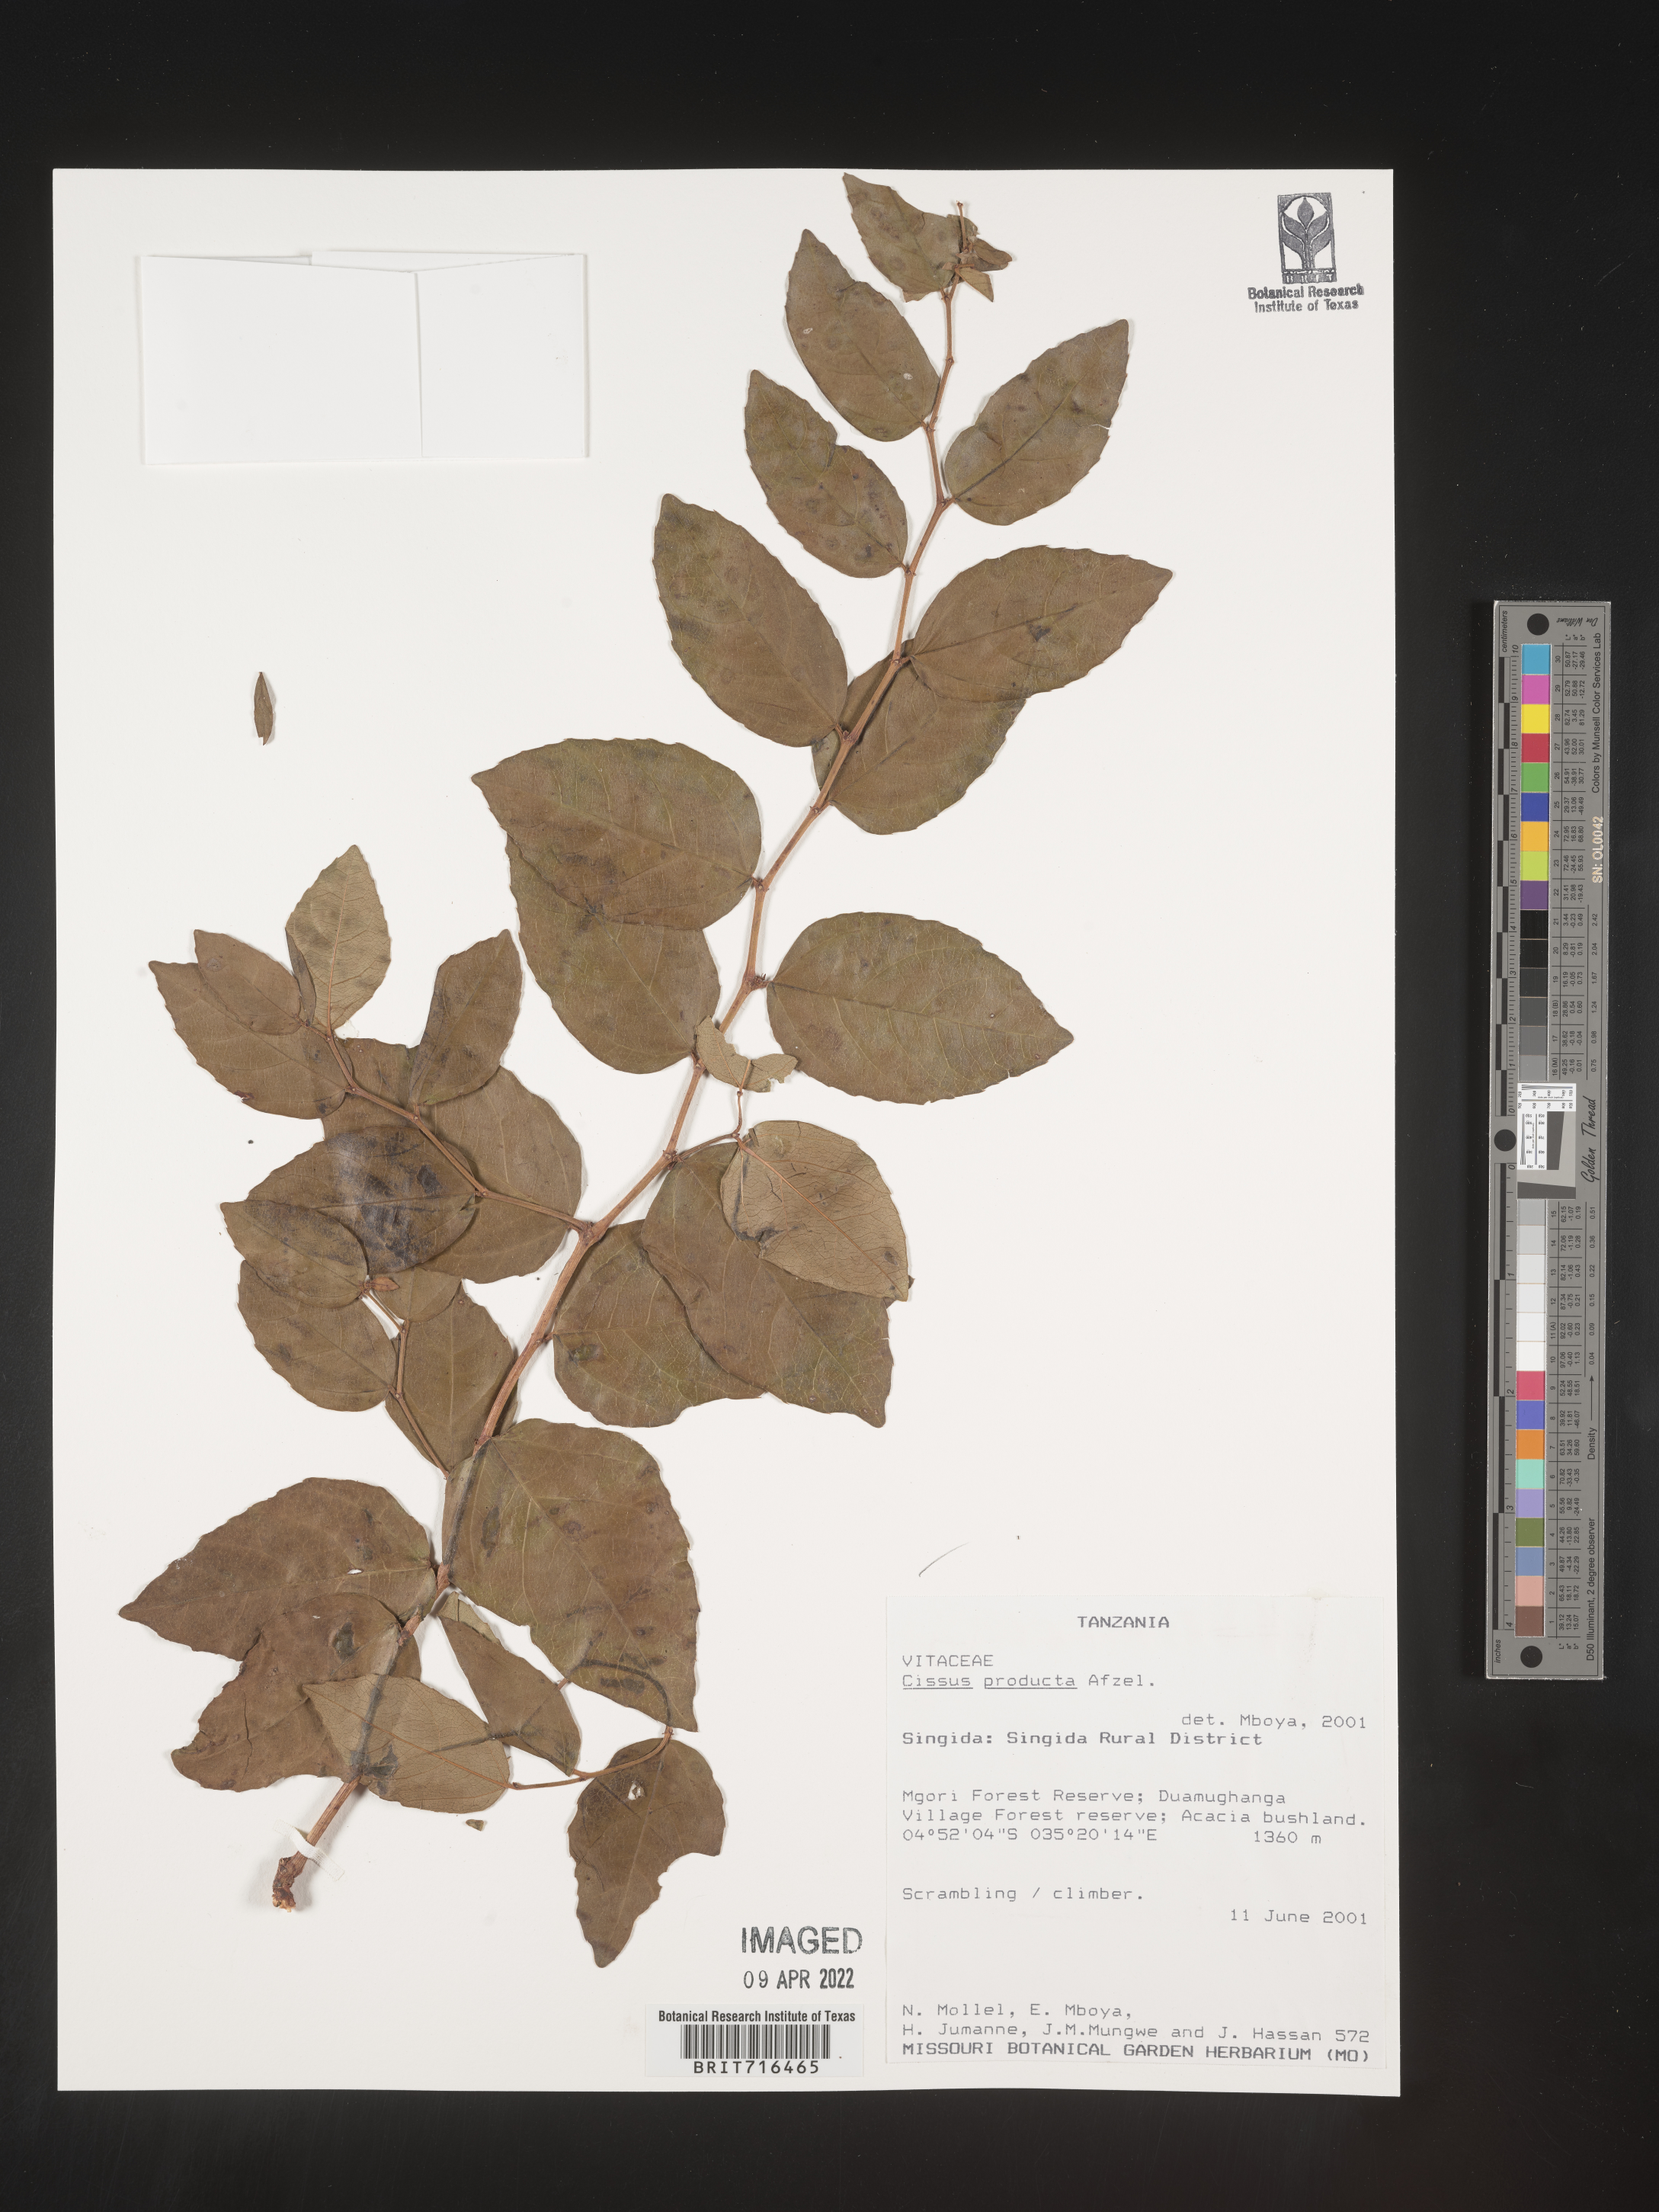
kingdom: Plantae
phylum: Tracheophyta
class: Magnoliopsida
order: Vitales
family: Vitaceae
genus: Cissus
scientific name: Cissus
